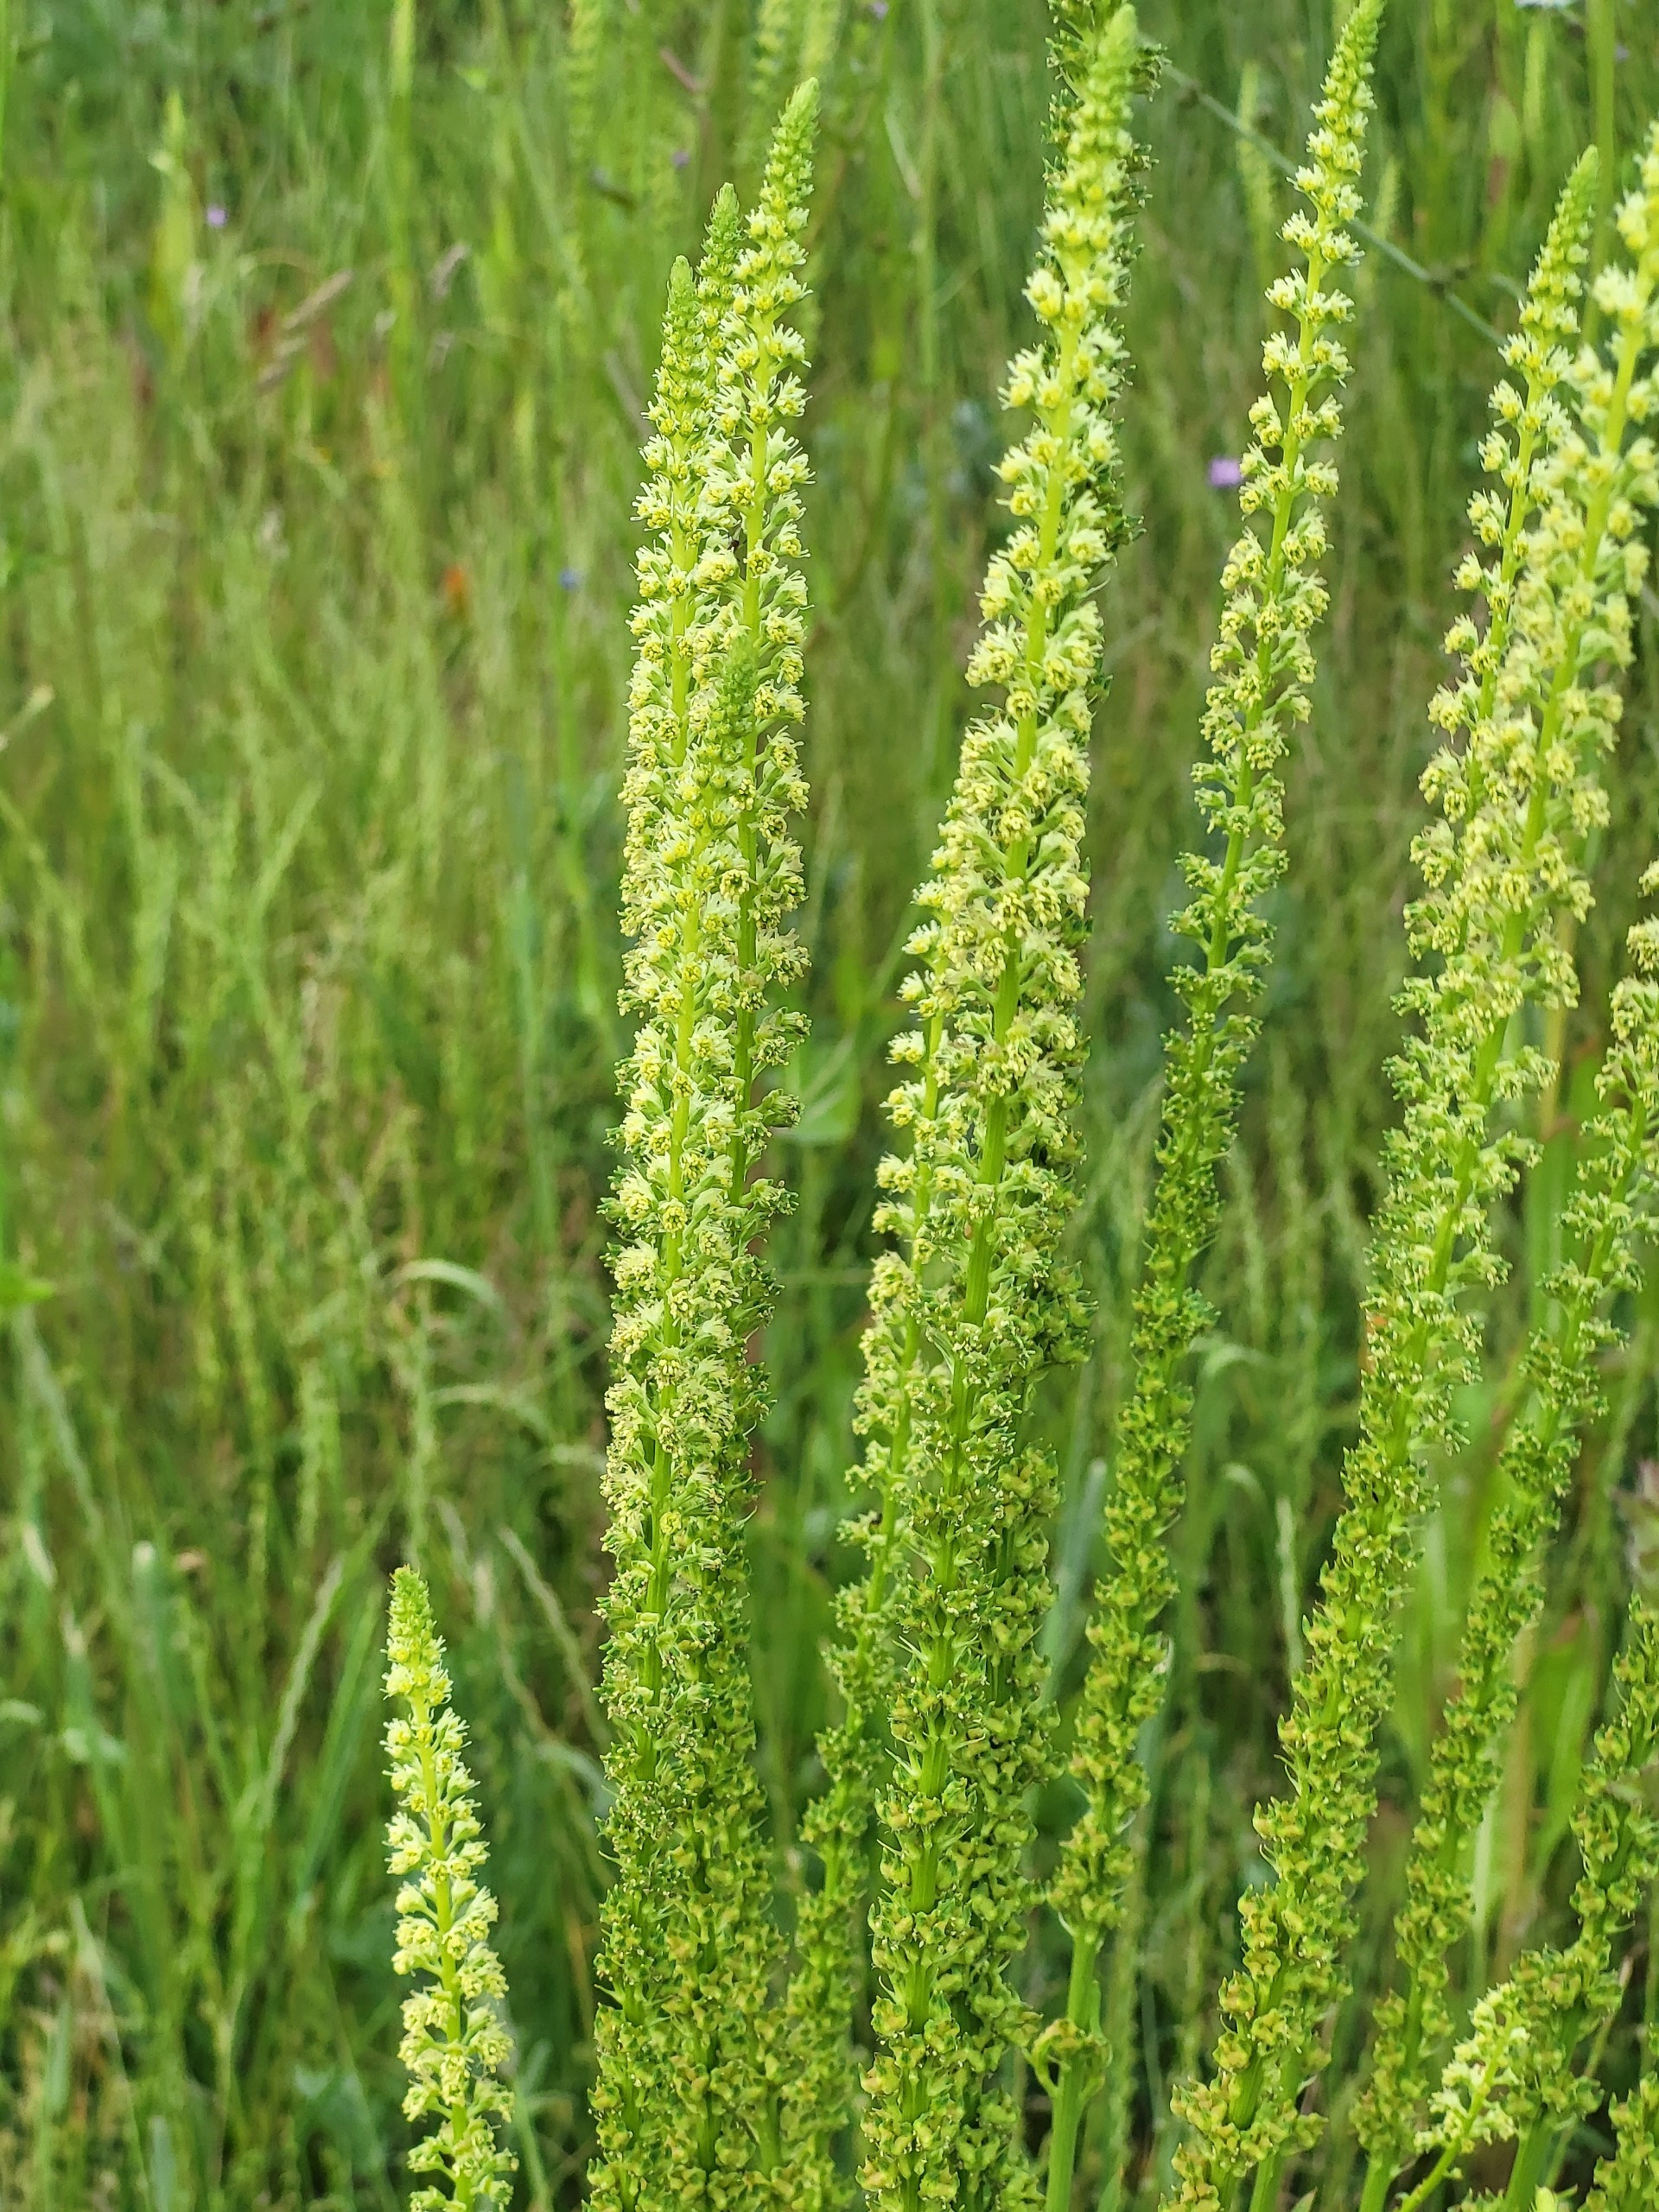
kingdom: Plantae
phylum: Tracheophyta
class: Magnoliopsida
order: Brassicales
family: Resedaceae
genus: Reseda
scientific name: Reseda luteola
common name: Farve-reseda
